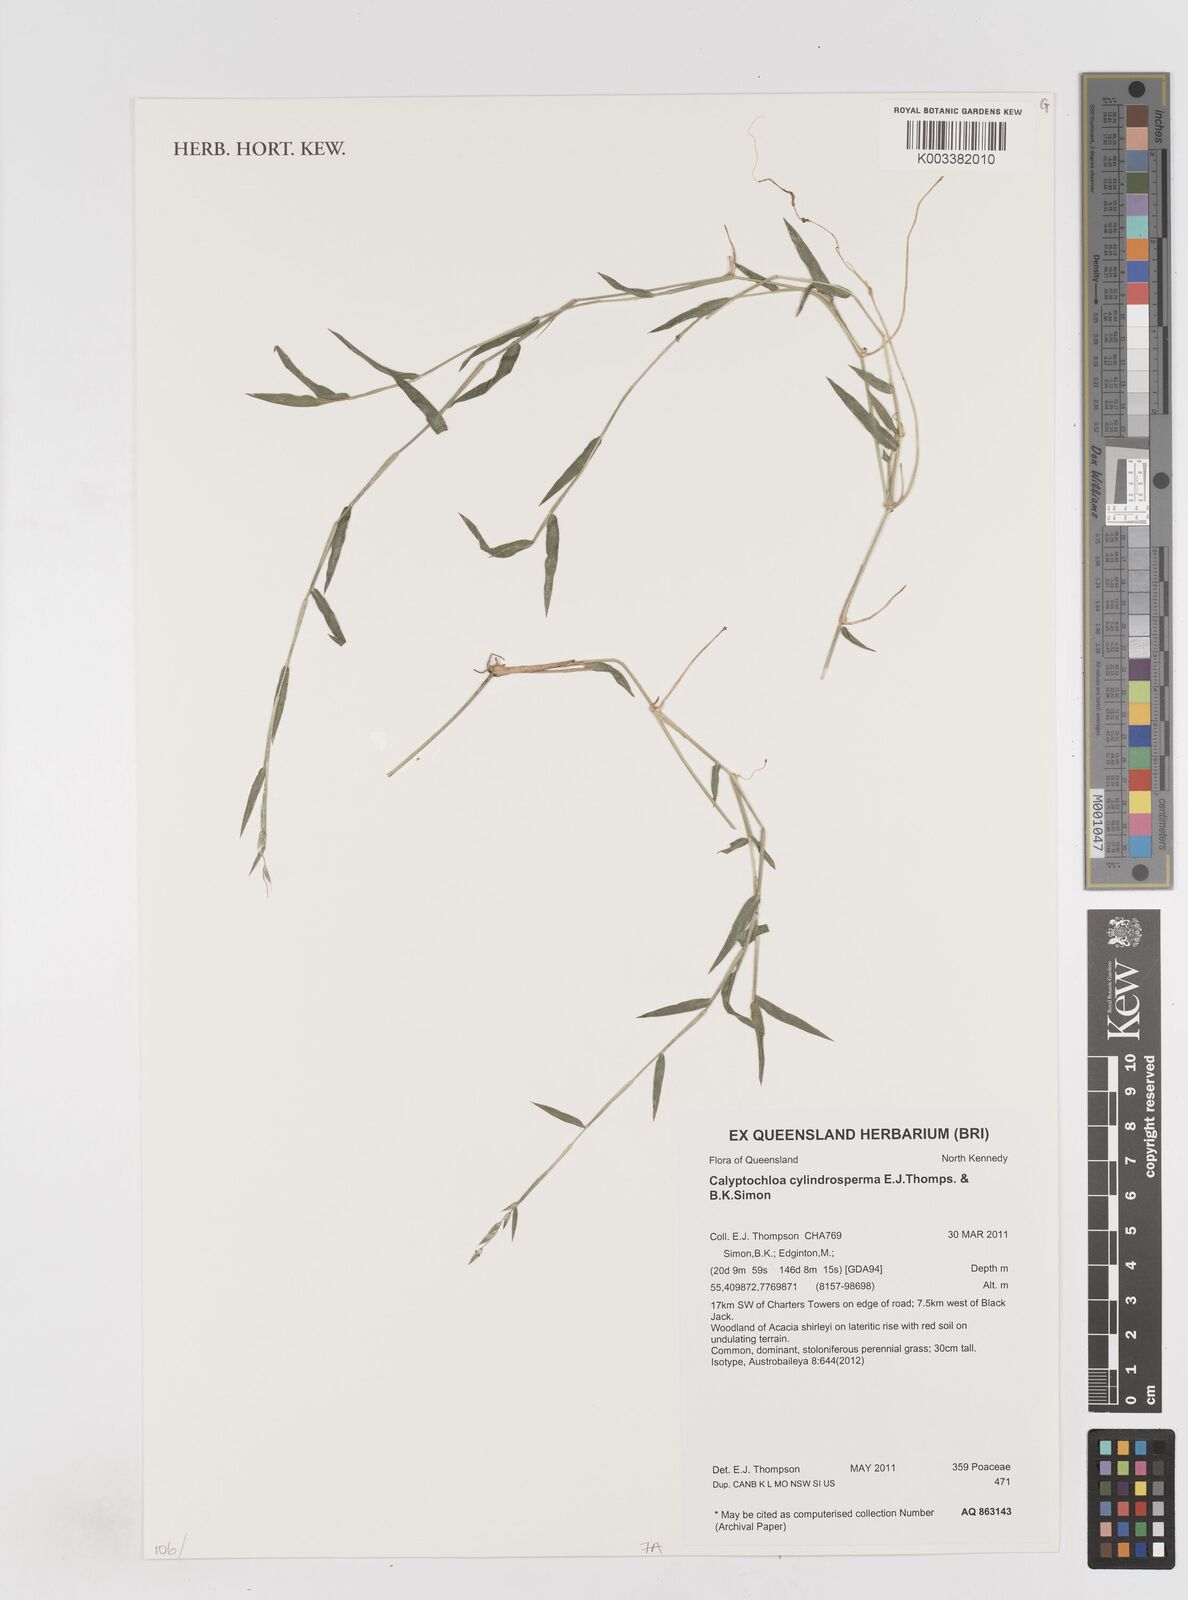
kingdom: Plantae
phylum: Tracheophyta
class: Liliopsida
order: Poales
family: Poaceae
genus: Calyptochloa
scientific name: Calyptochloa cylindrosperma
